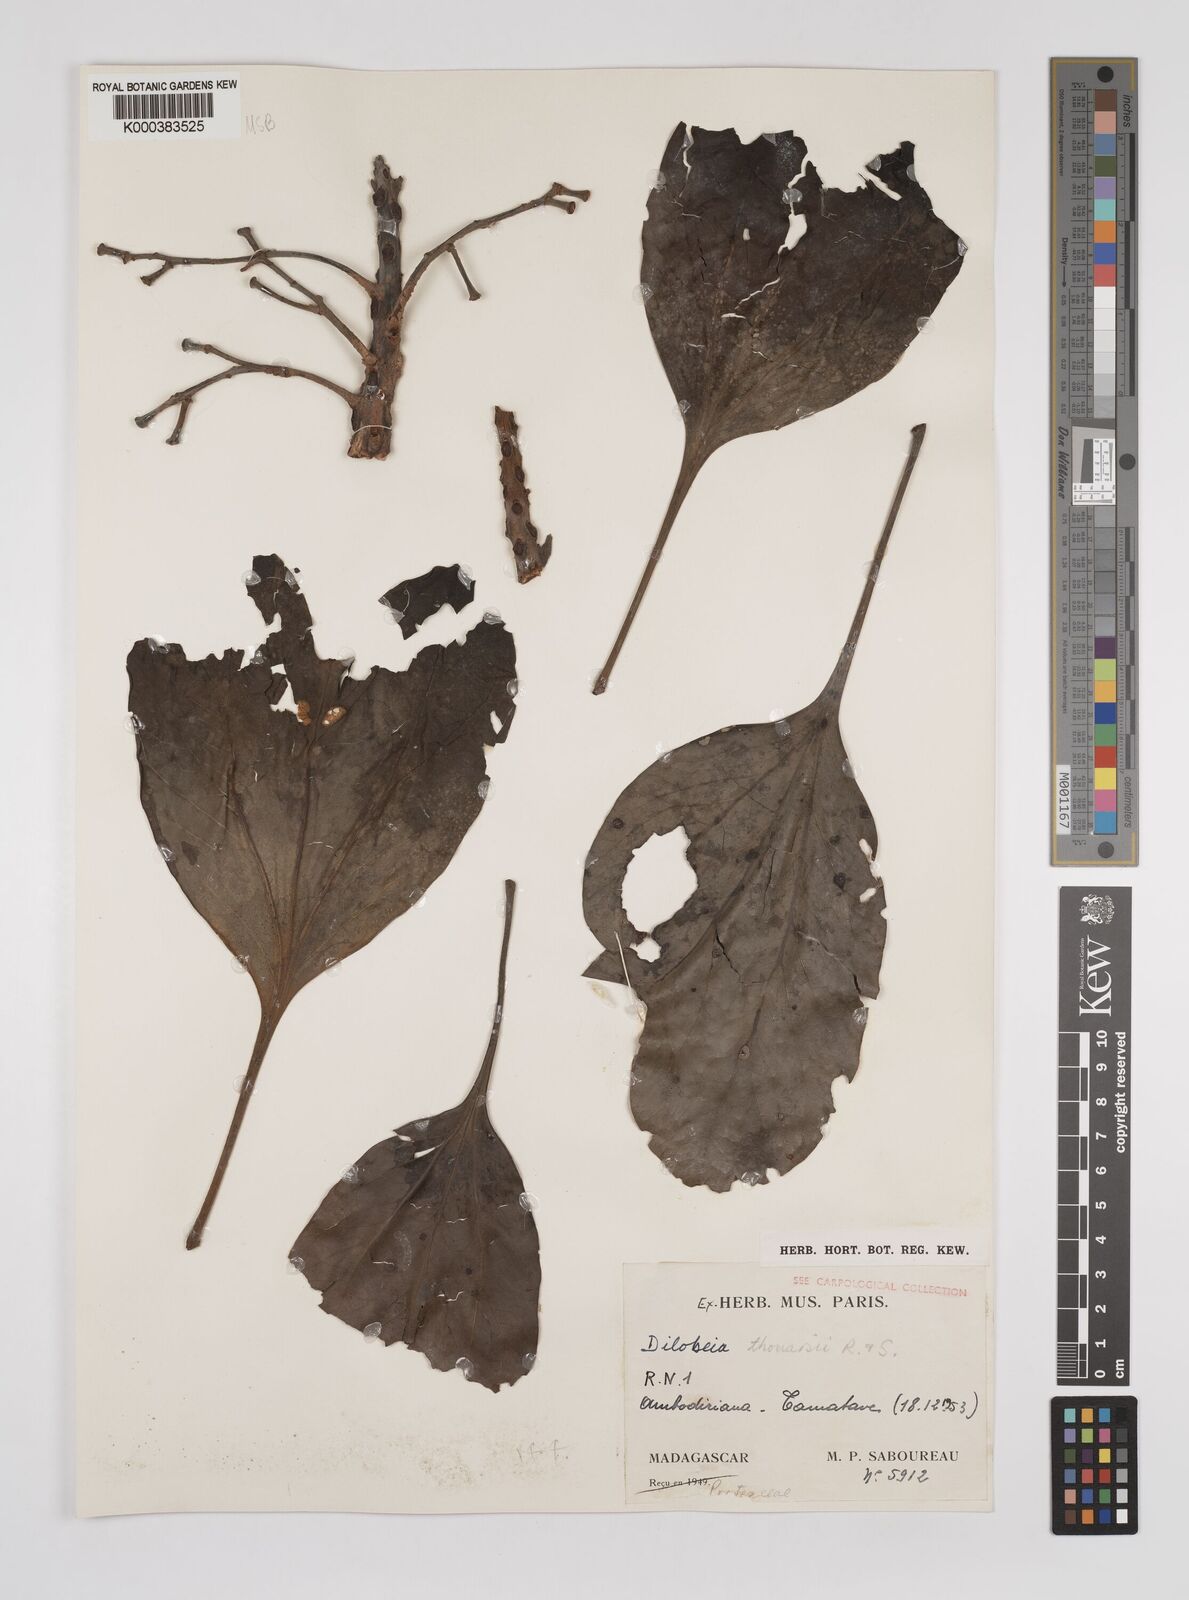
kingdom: Plantae
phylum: Tracheophyta
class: Magnoliopsida
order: Proteales
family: Proteaceae
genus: Dilobeia
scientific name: Dilobeia thouarsii
